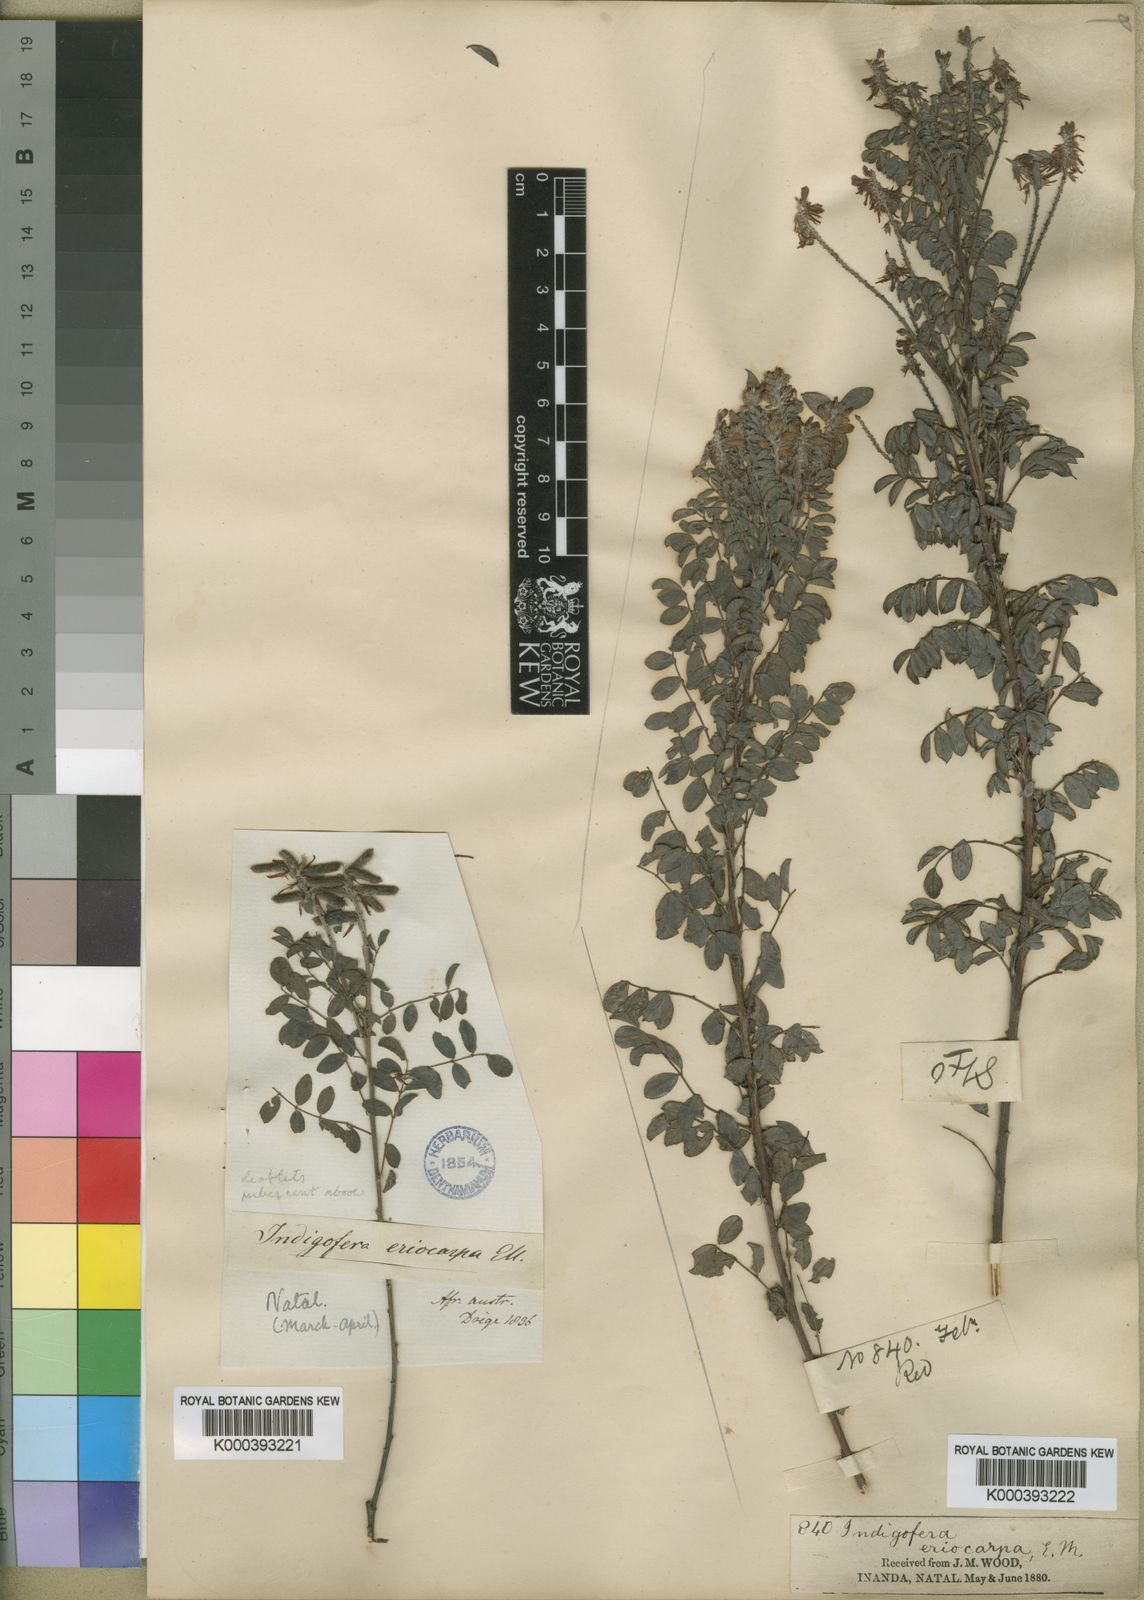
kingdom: Plantae
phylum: Tracheophyta
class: Magnoliopsida
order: Fabales
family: Fabaceae
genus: Indigofera
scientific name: Indigofera
